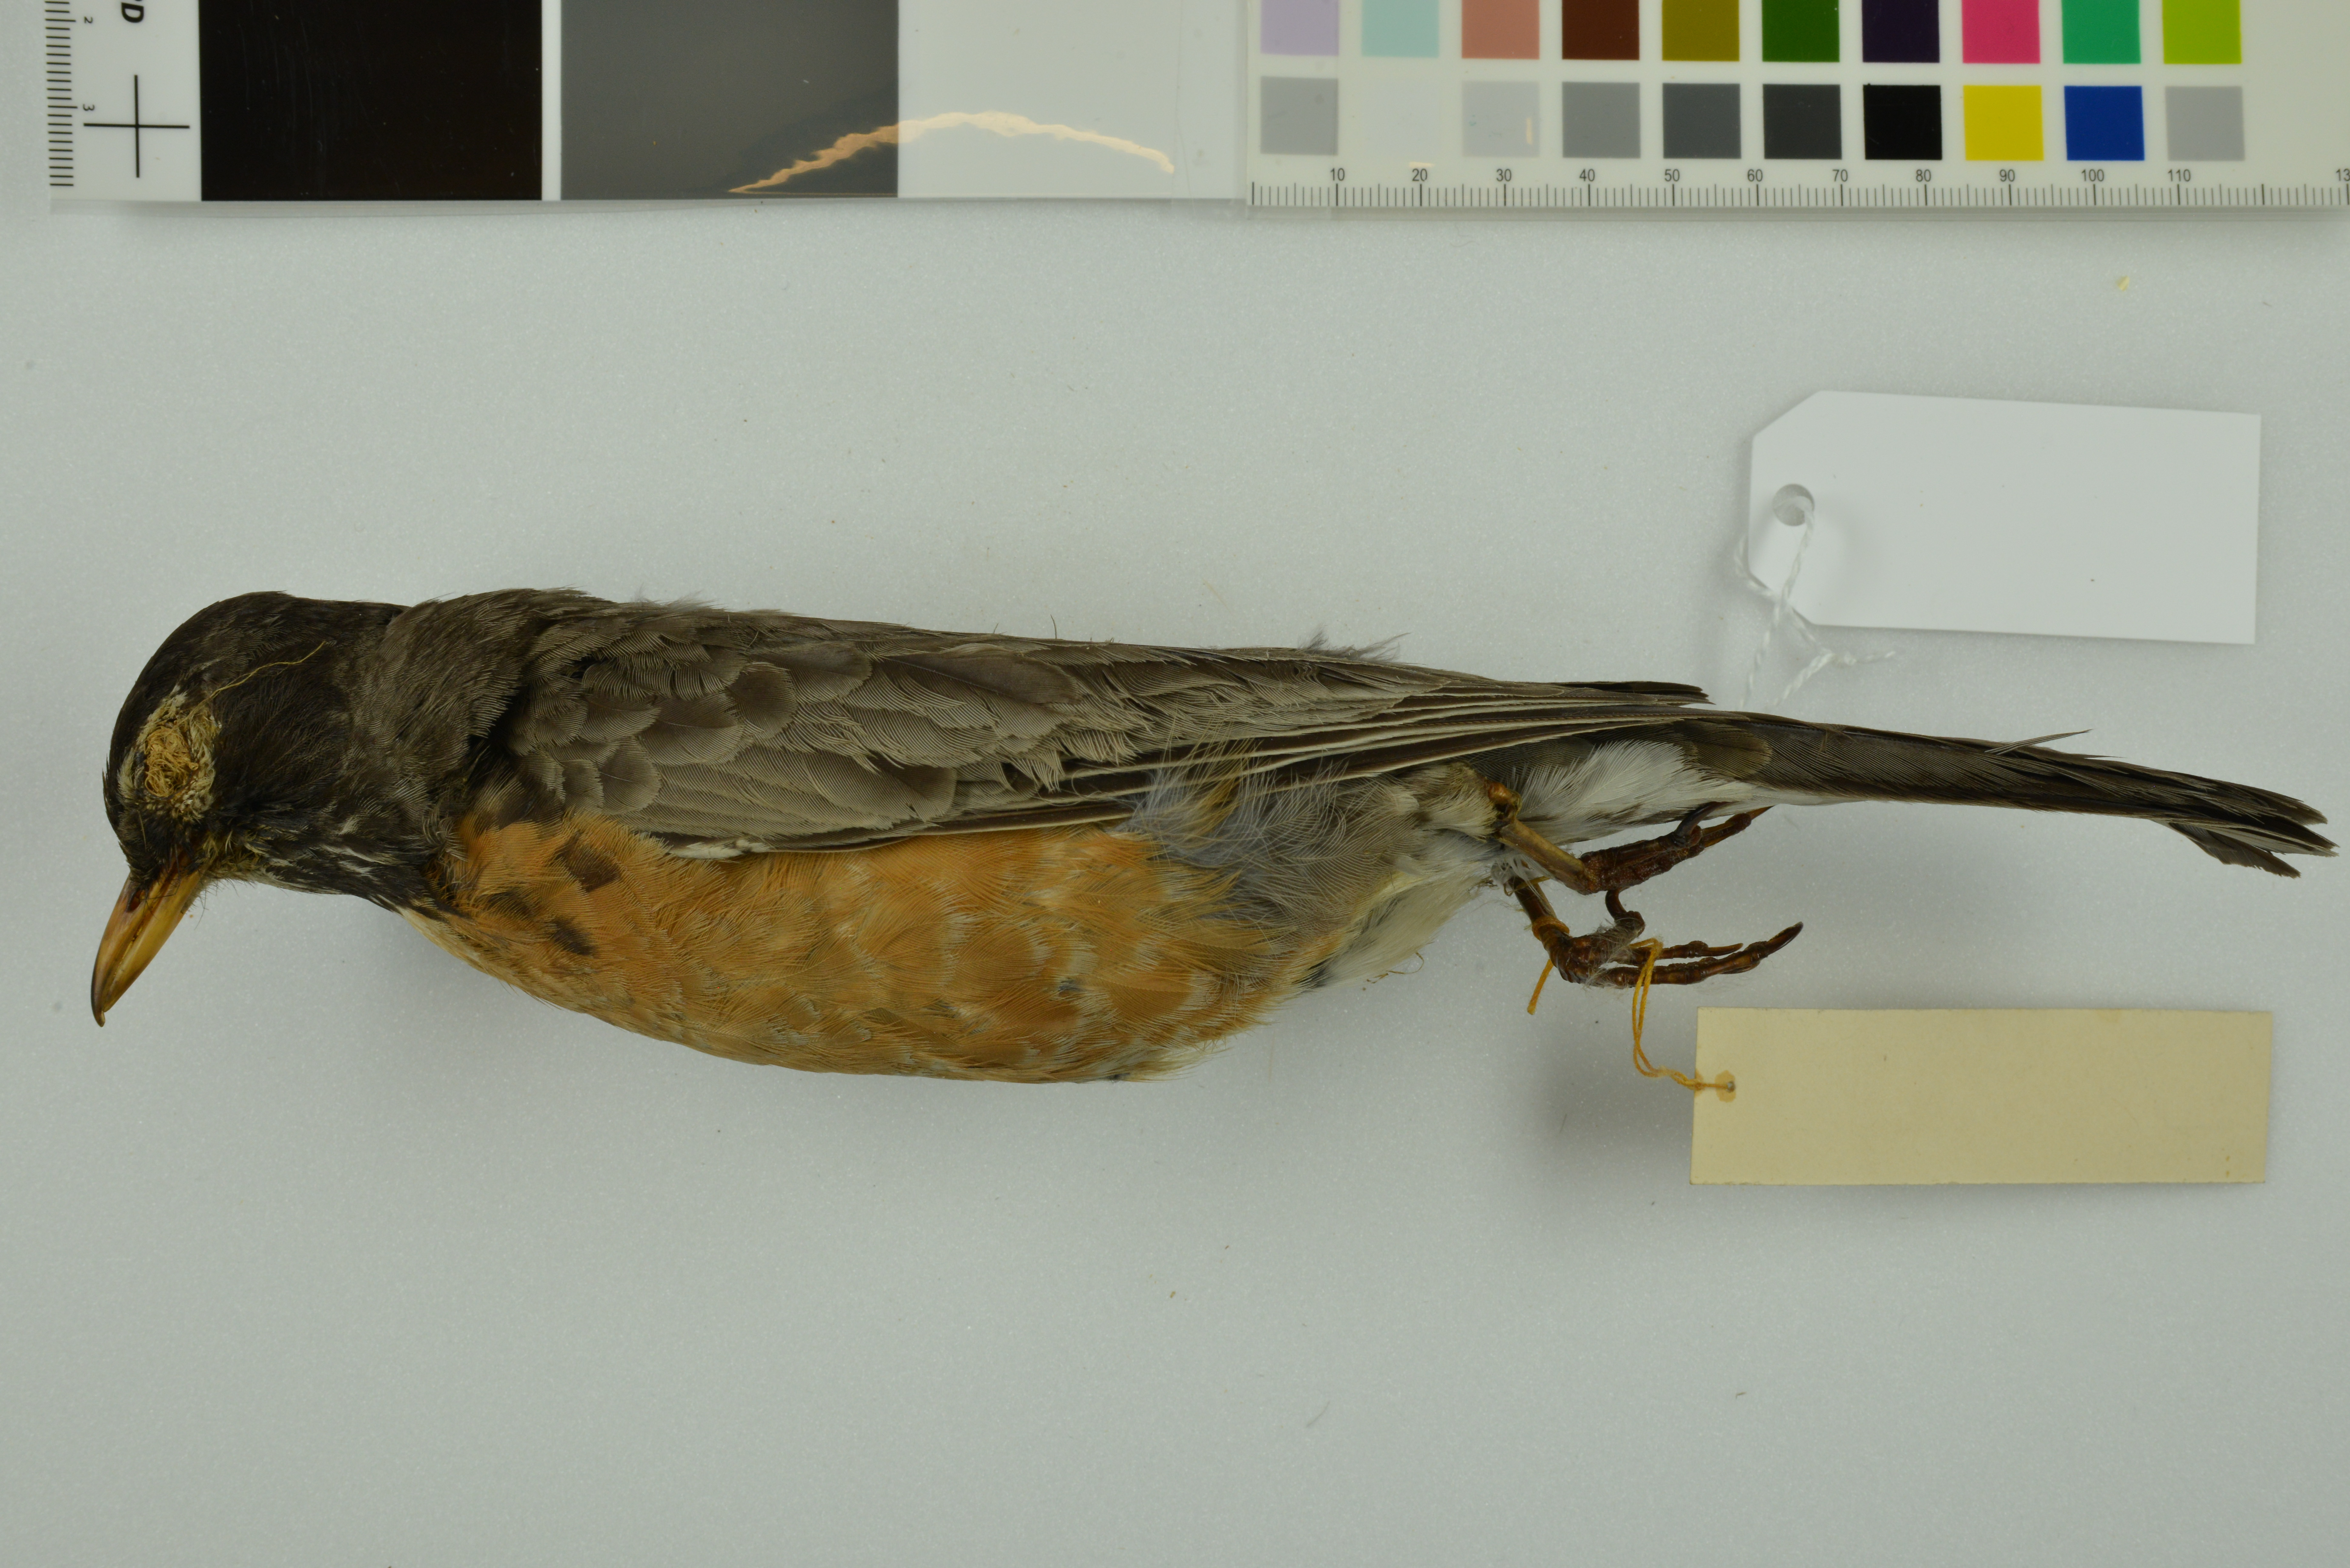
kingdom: Animalia
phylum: Chordata
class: Aves
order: Passeriformes
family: Turdidae
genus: Turdus
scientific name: Turdus migratorius
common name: American robin
